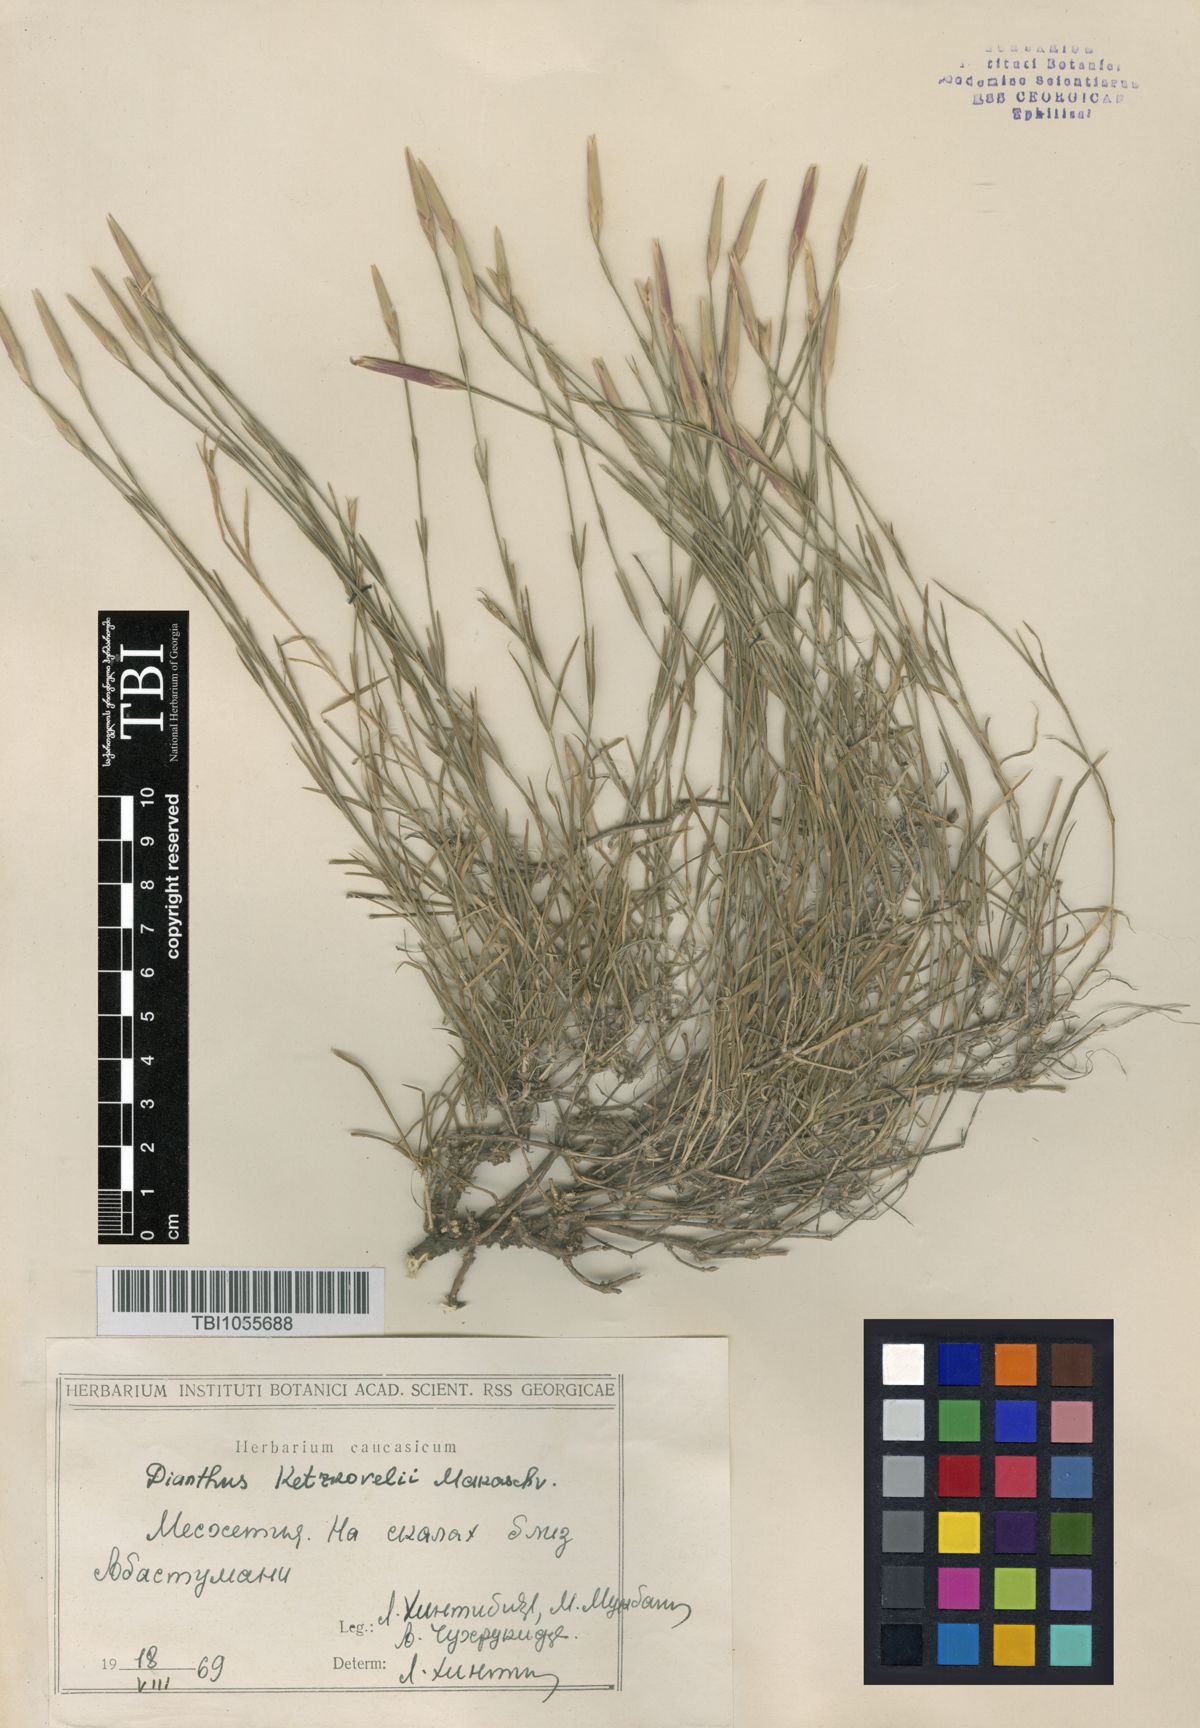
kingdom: Plantae
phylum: Tracheophyta
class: Magnoliopsida
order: Caryophyllales
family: Caryophyllaceae
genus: Dianthus
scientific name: Dianthus orientalis
